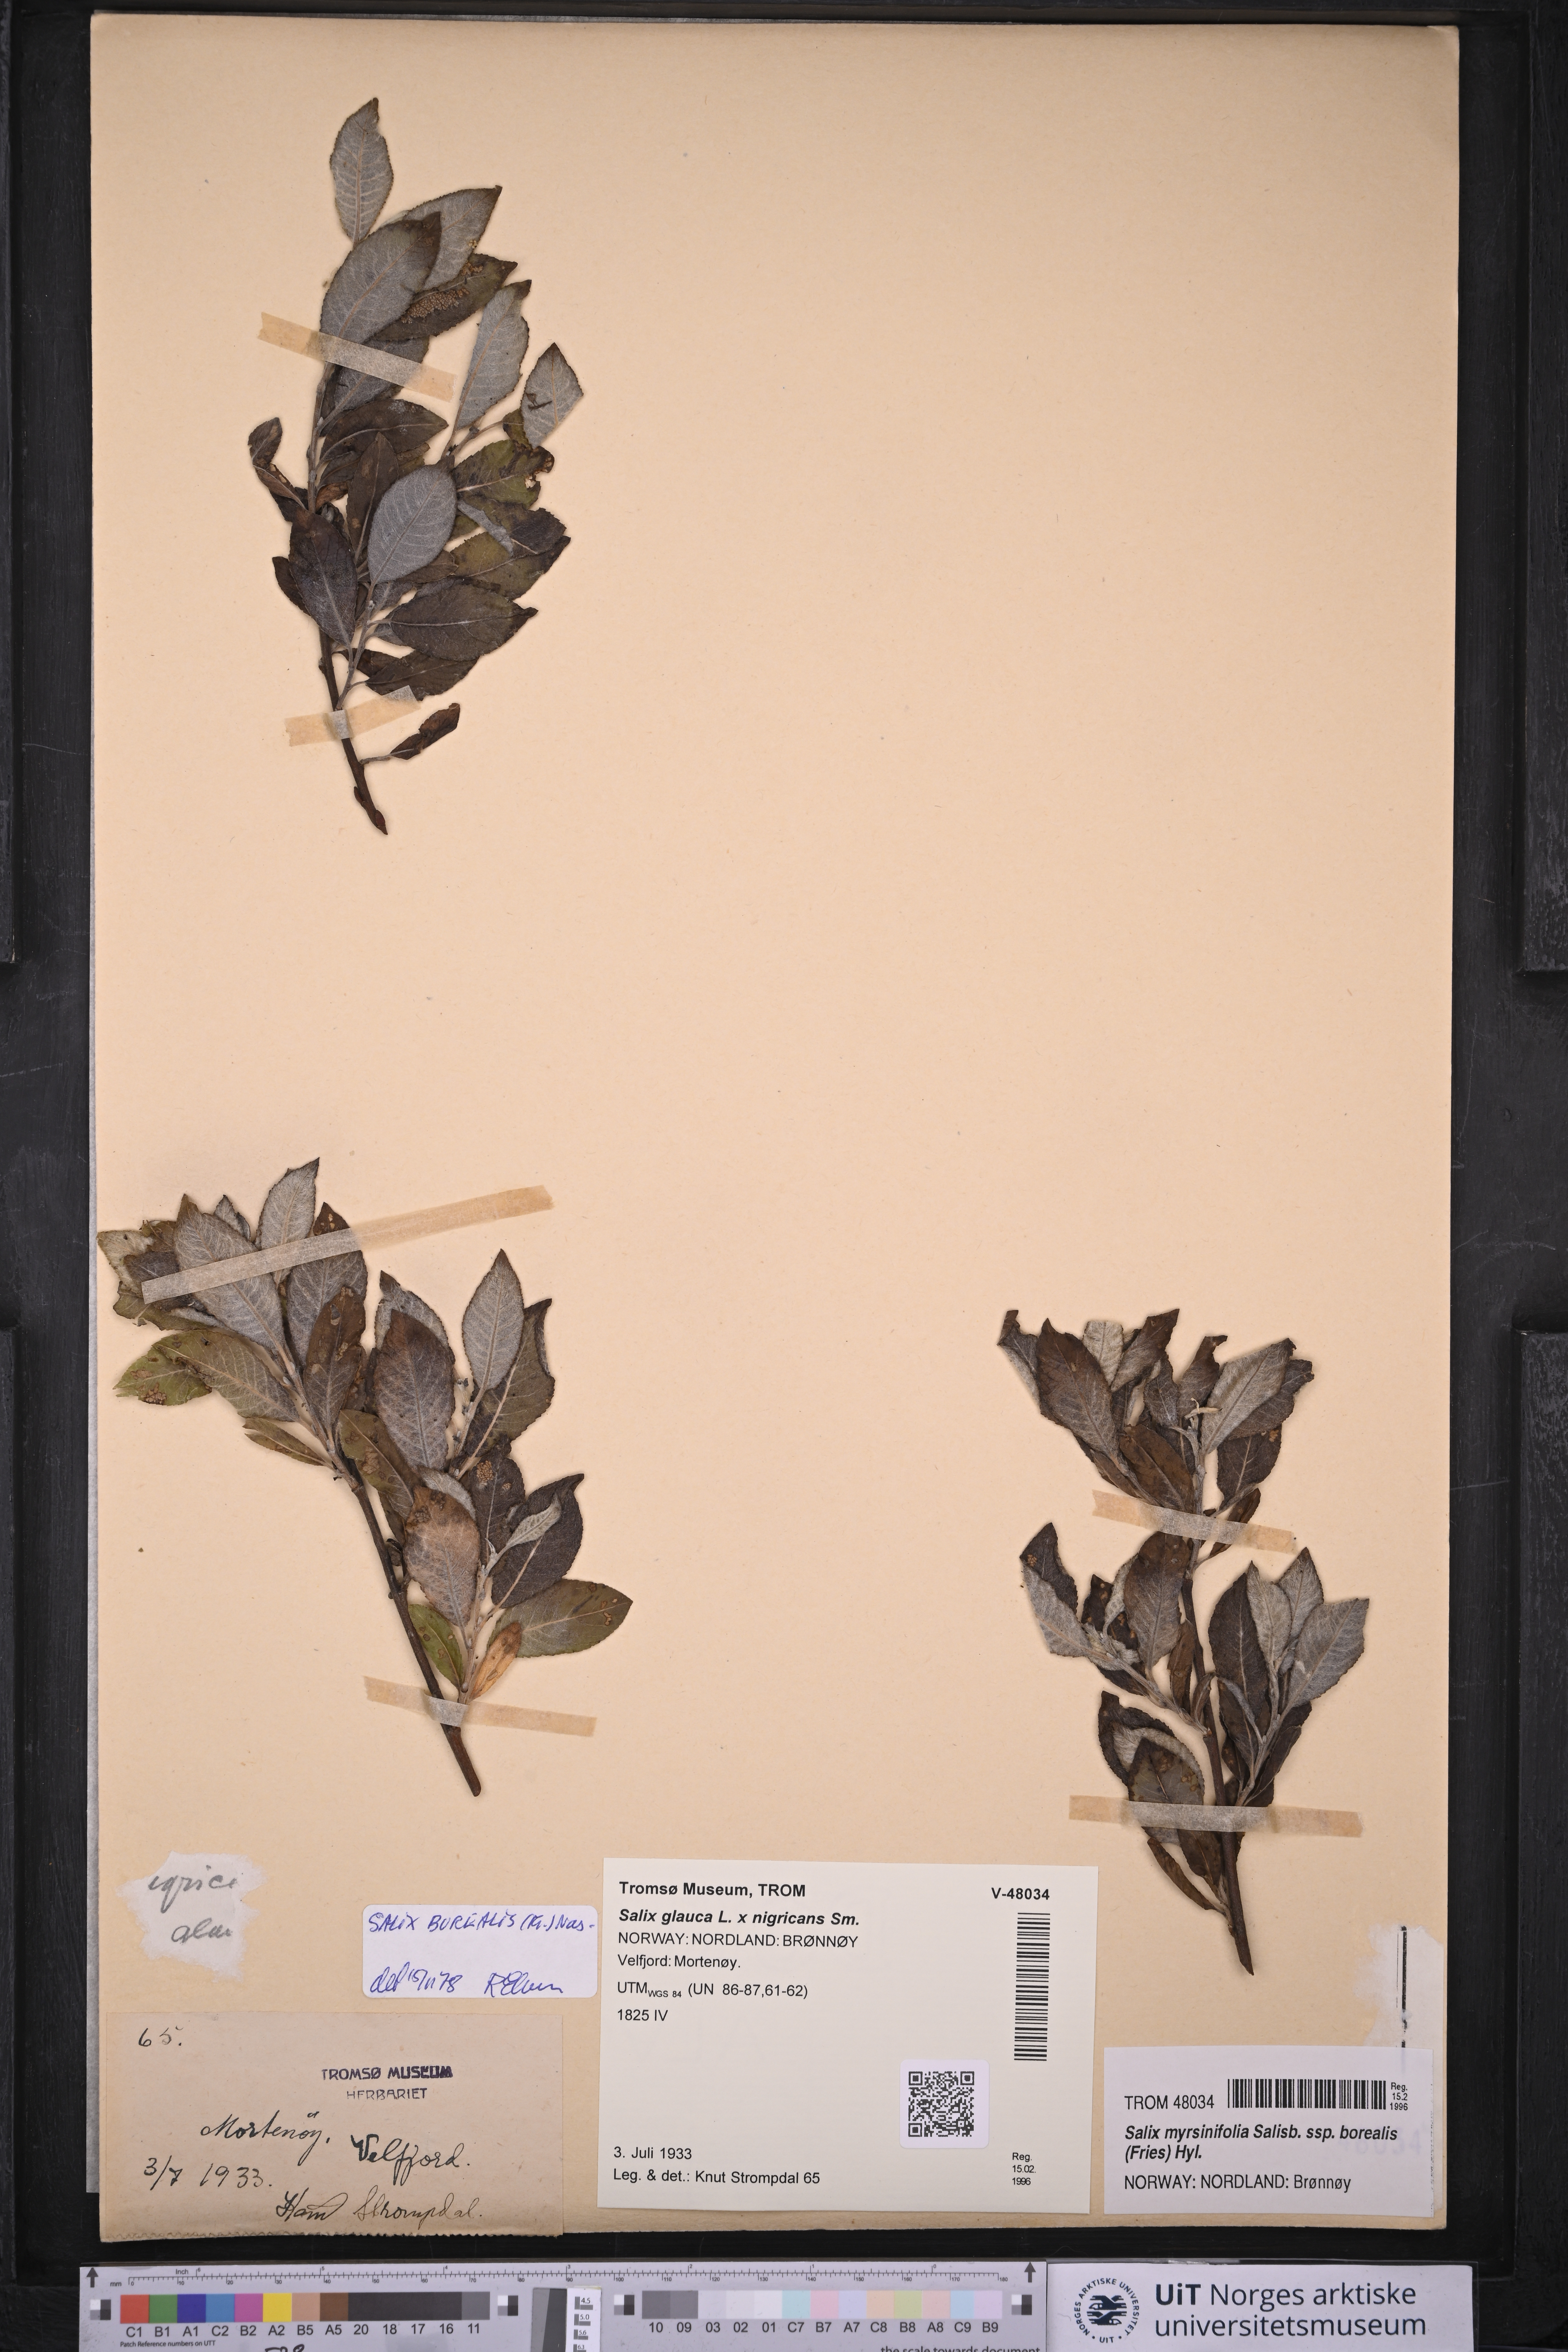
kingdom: Plantae
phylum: Tracheophyta
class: Magnoliopsida
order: Malpighiales
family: Salicaceae
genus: Salix
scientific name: Salix myrsinifolia
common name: Dark-leaved willow
